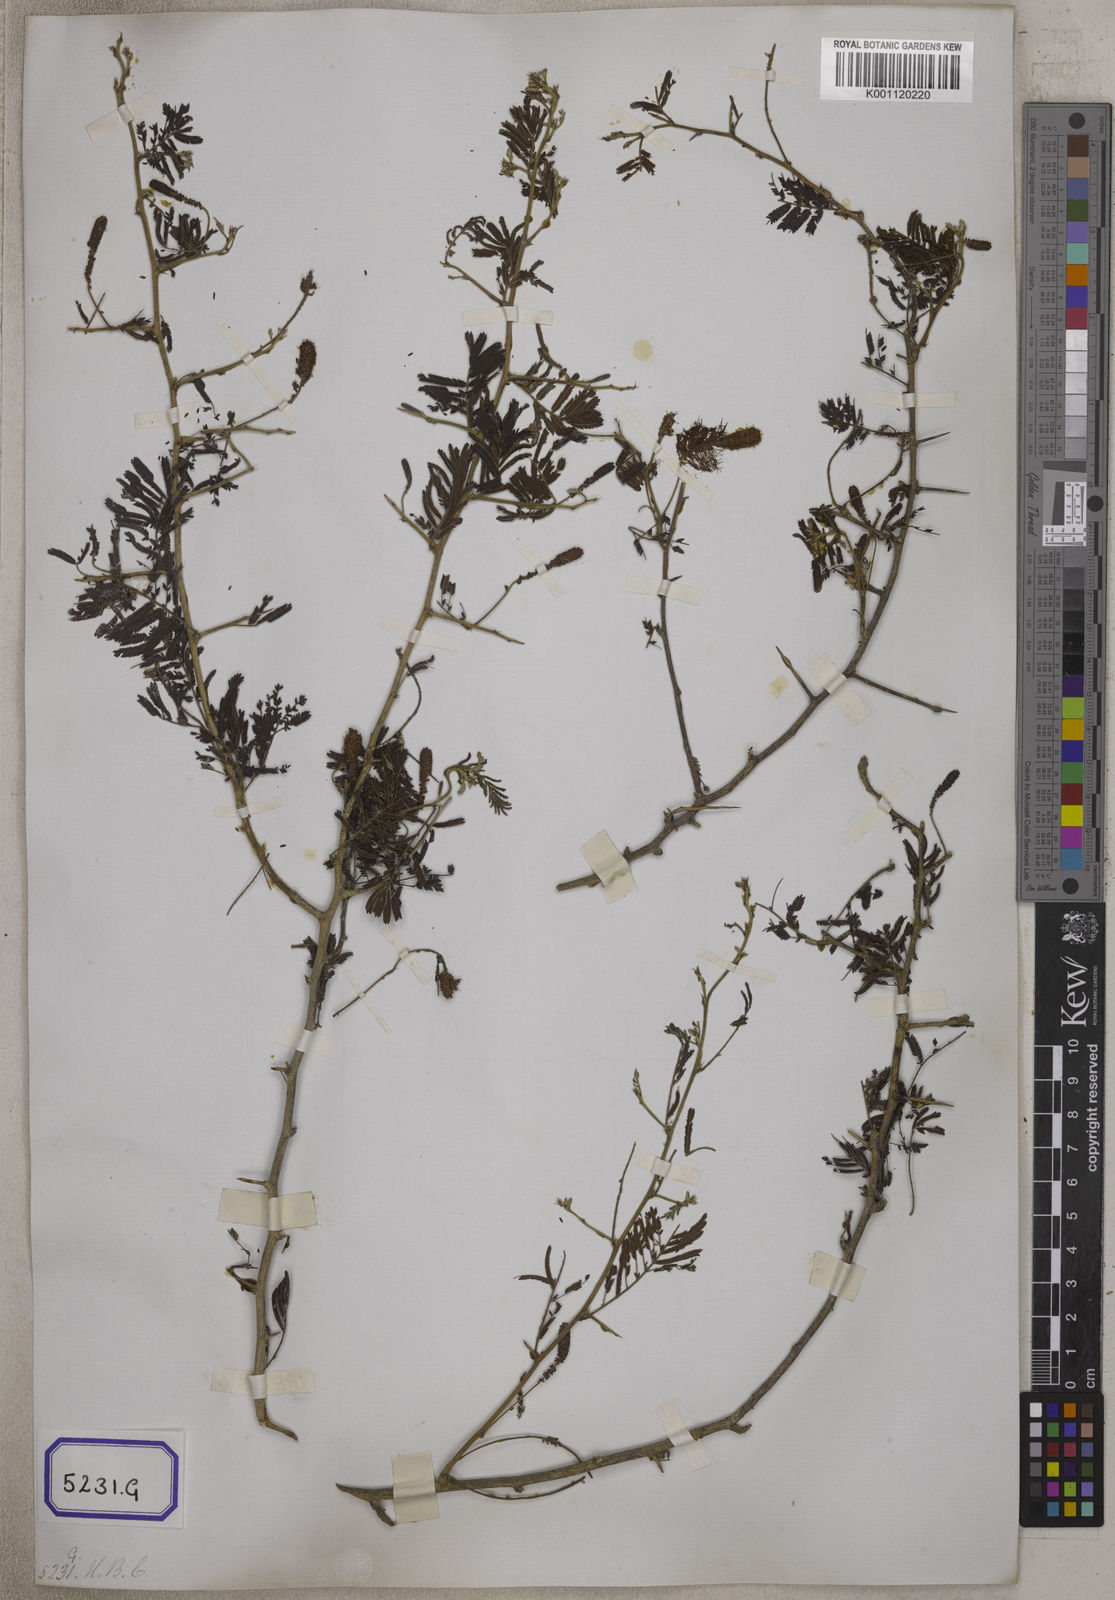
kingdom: Plantae
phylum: Tracheophyta
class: Magnoliopsida
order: Fabales
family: Fabaceae
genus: Dichrostachys
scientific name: Dichrostachys cinerea
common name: Sicklebush
